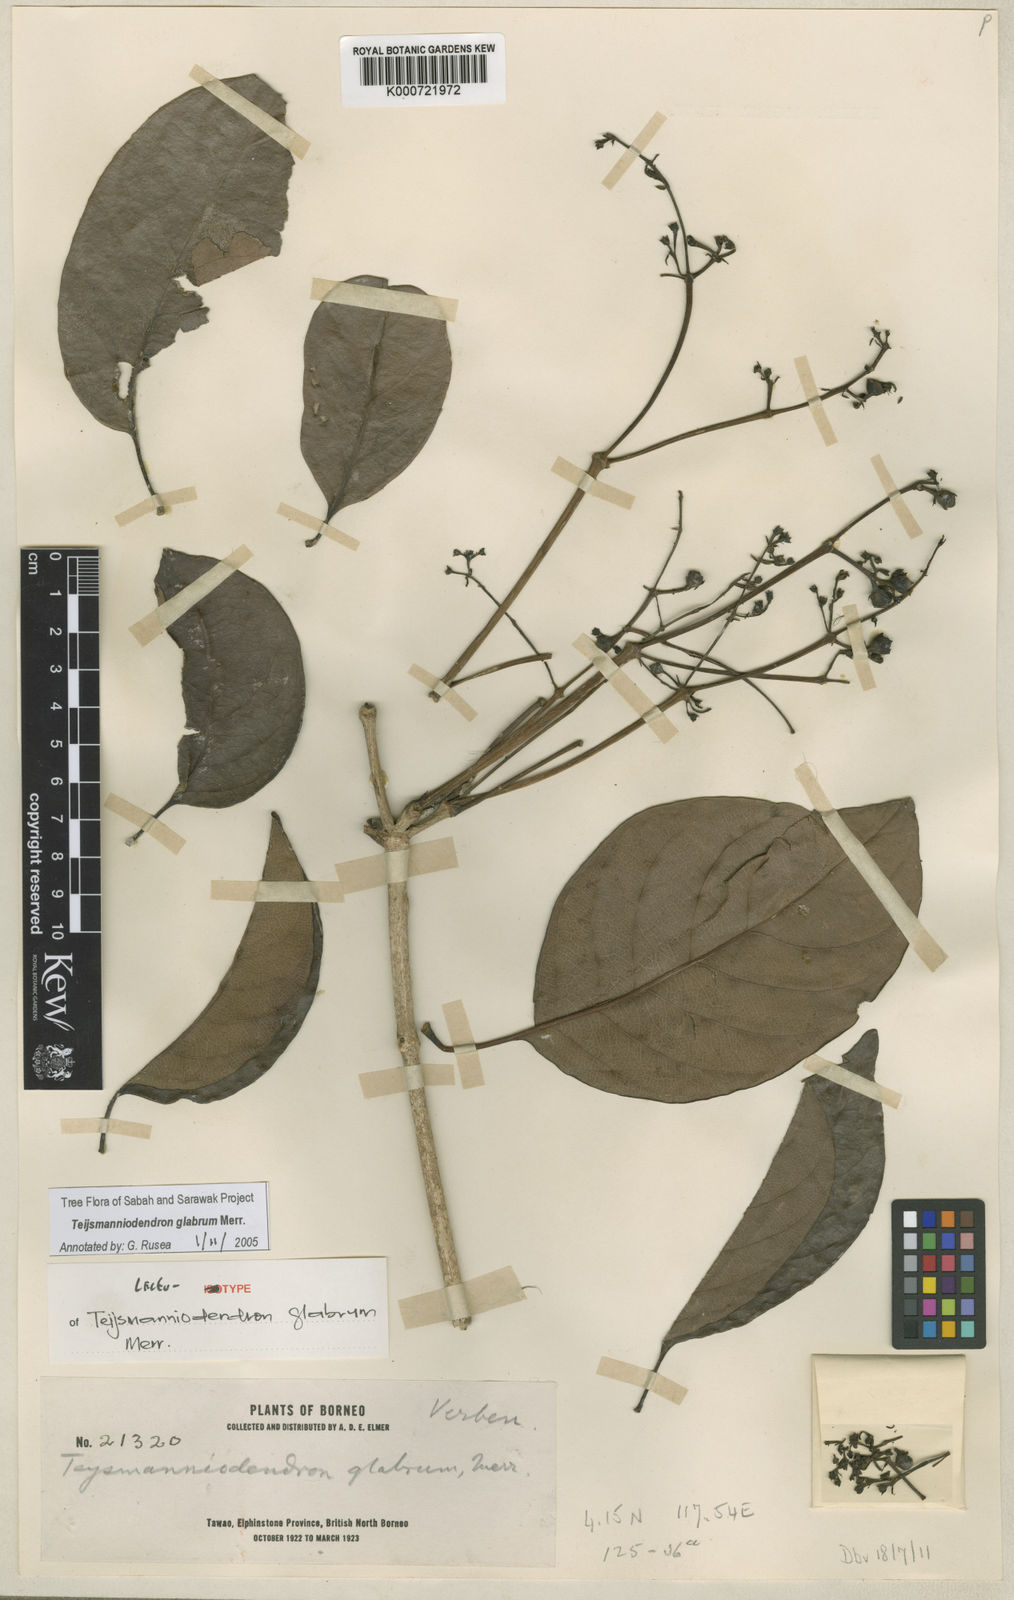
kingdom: Plantae
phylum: Tracheophyta
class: Magnoliopsida
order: Lamiales
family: Lamiaceae
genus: Teijsmanniodendron
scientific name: Teijsmanniodendron glabrum
